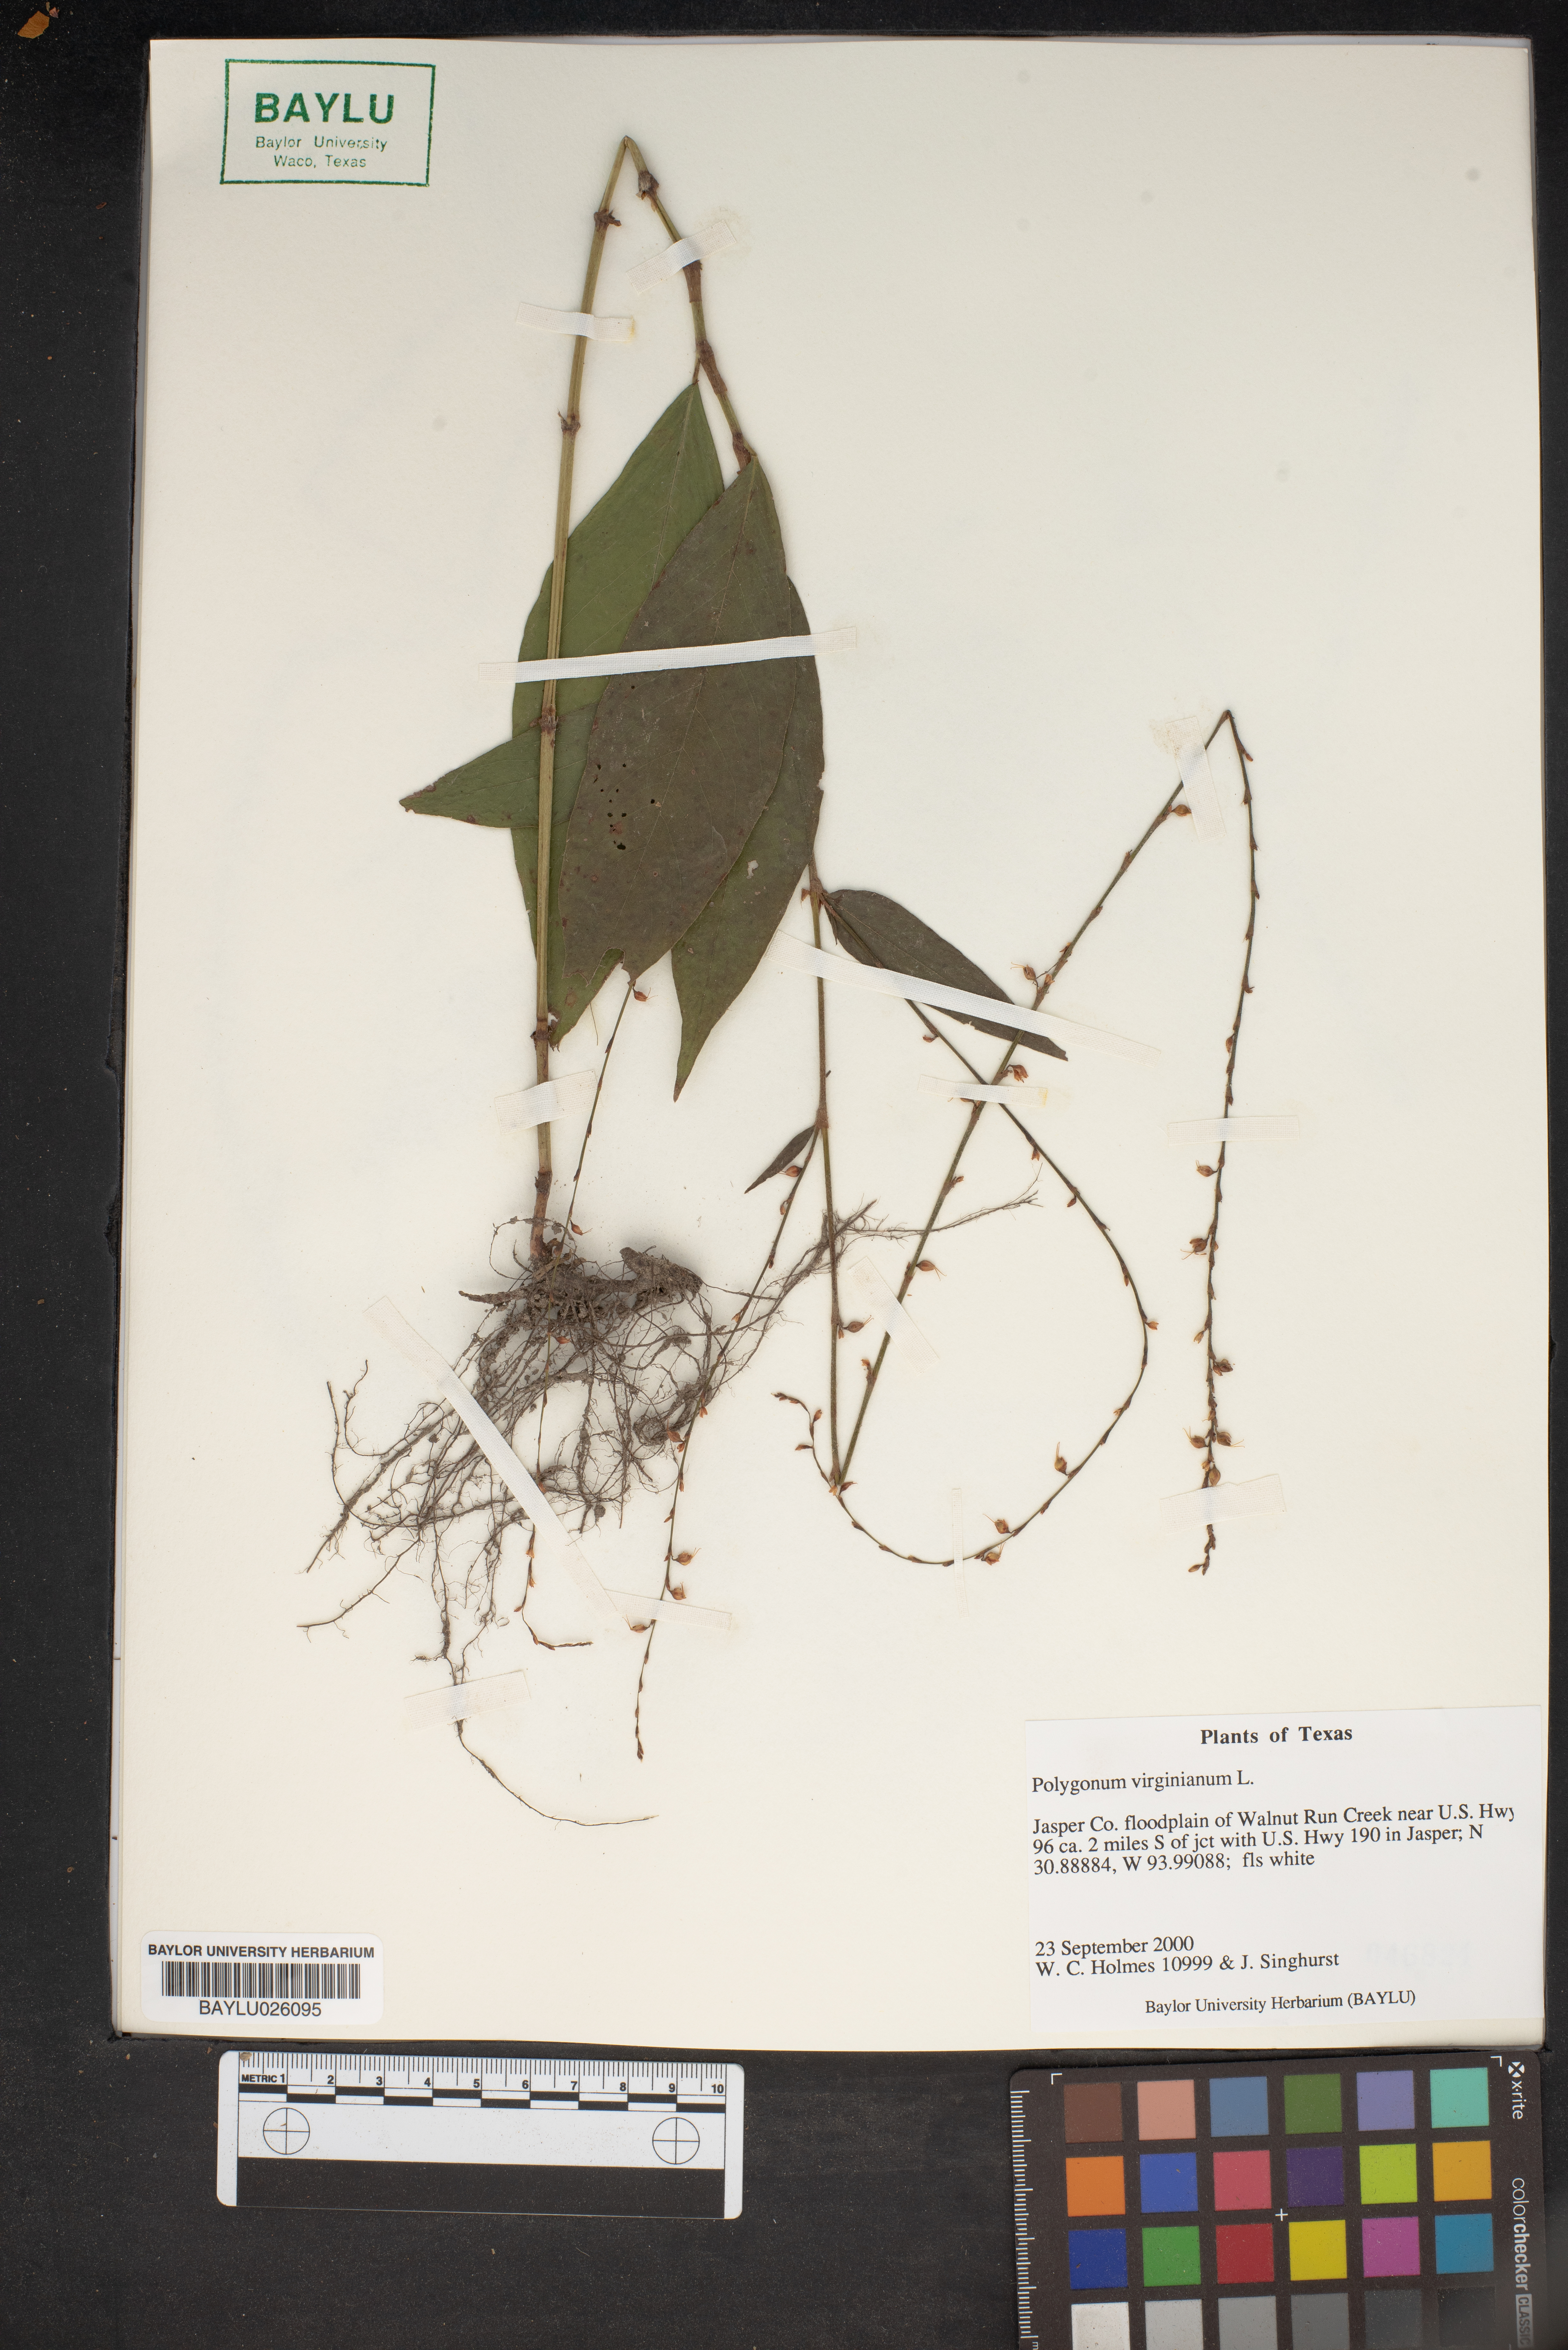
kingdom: Plantae
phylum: Tracheophyta
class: Magnoliopsida
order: Caryophyllales
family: Polygonaceae
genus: Persicaria
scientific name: Persicaria virginiana
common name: Jumpseed
